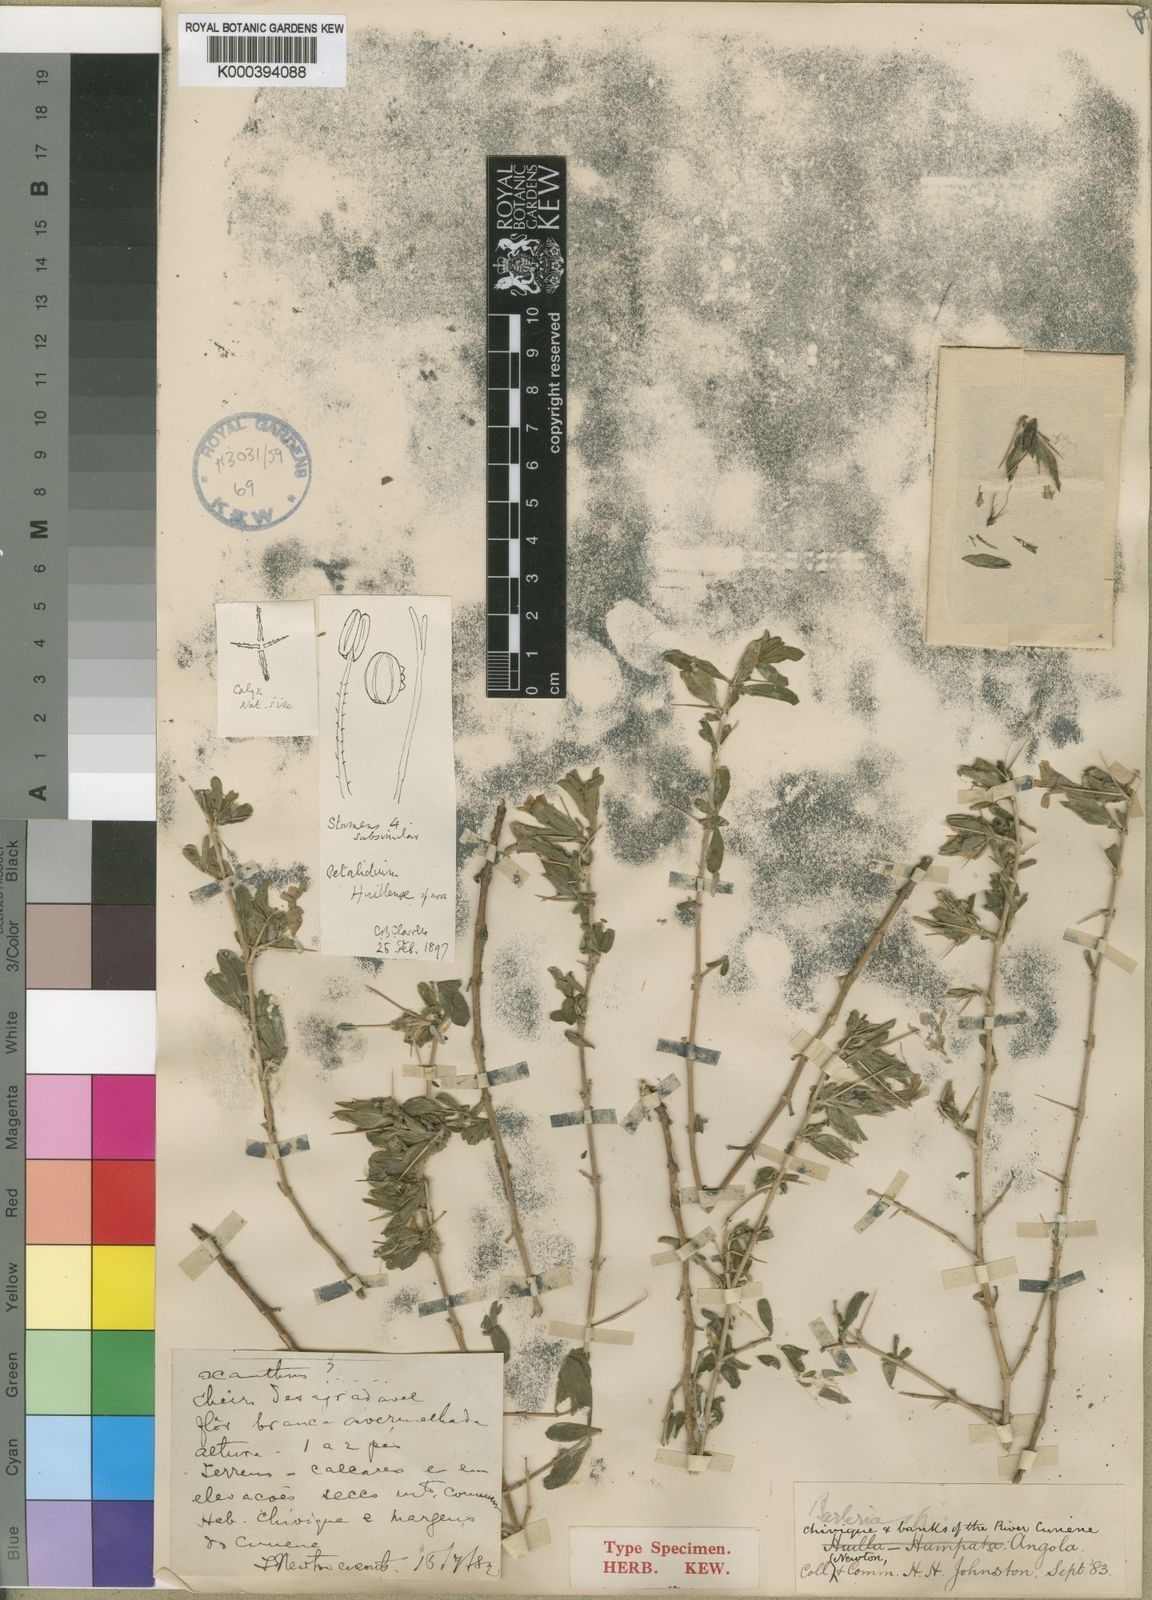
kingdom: Plantae
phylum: Tracheophyta
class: Magnoliopsida
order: Lamiales
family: Acanthaceae
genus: Petalidium
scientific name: Petalidium huillense
